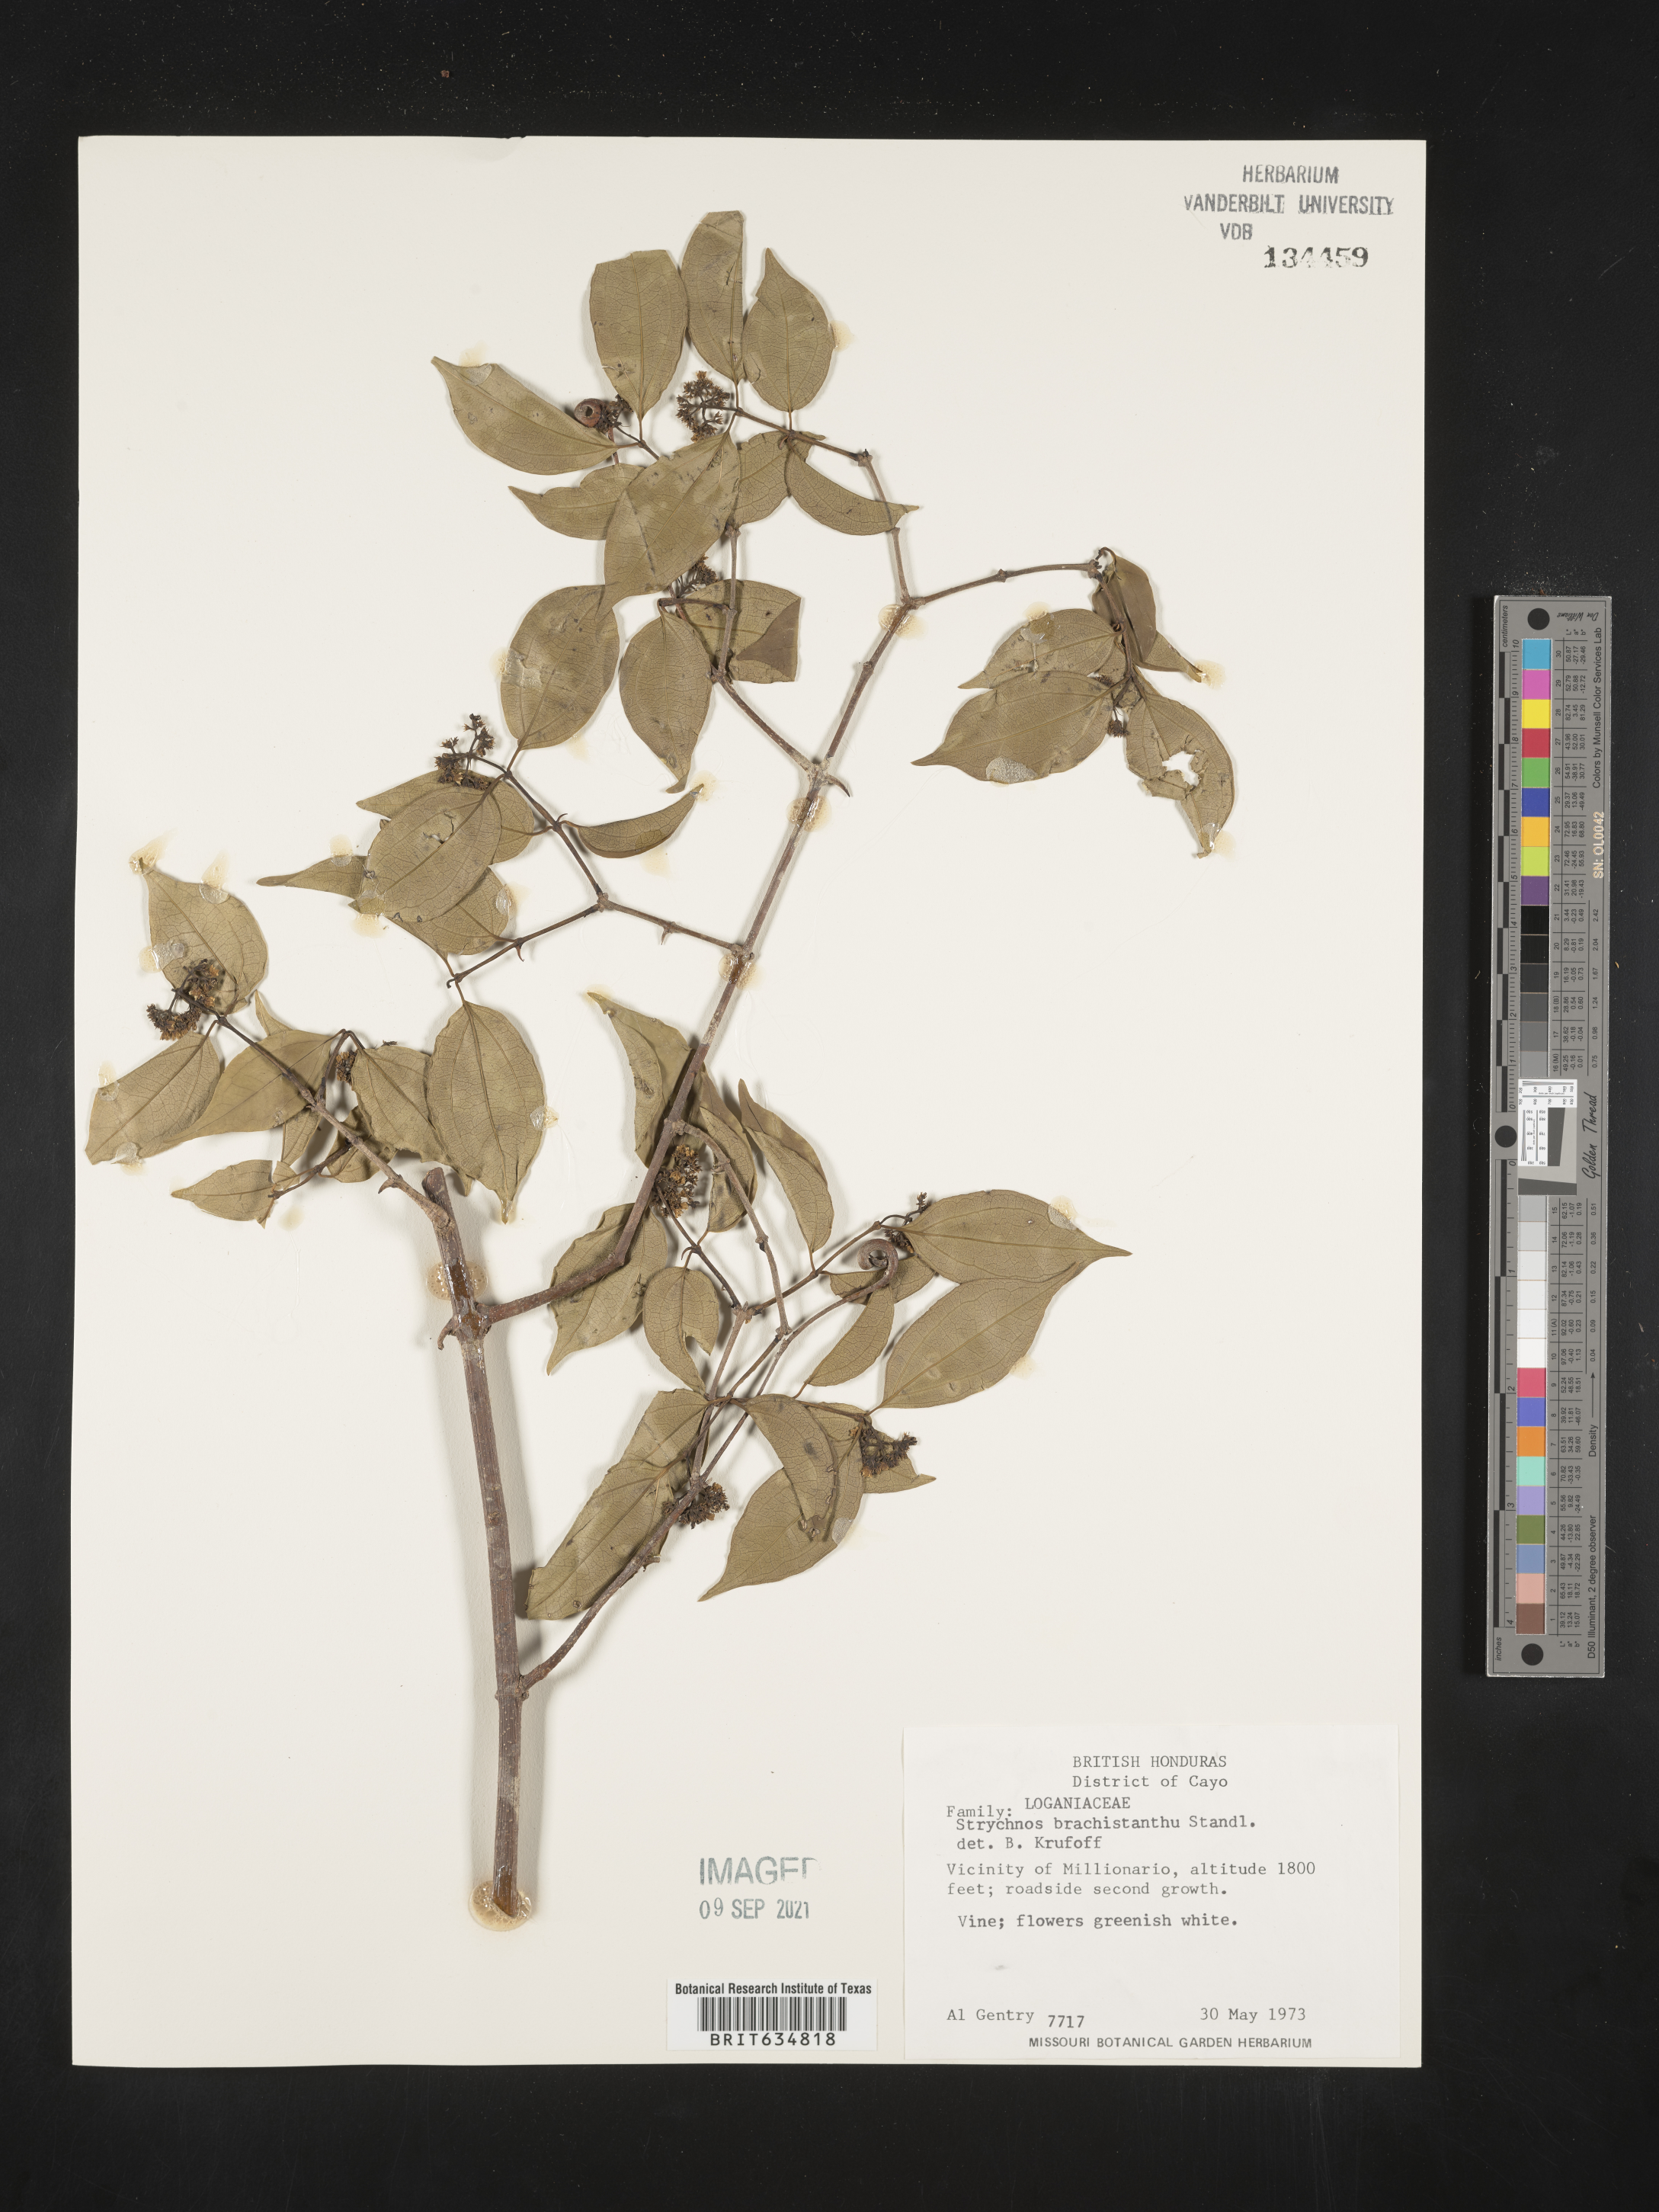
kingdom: Plantae
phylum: Tracheophyta
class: Magnoliopsida
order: Gentianales
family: Loganiaceae
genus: Strychnos
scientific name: Strychnos
